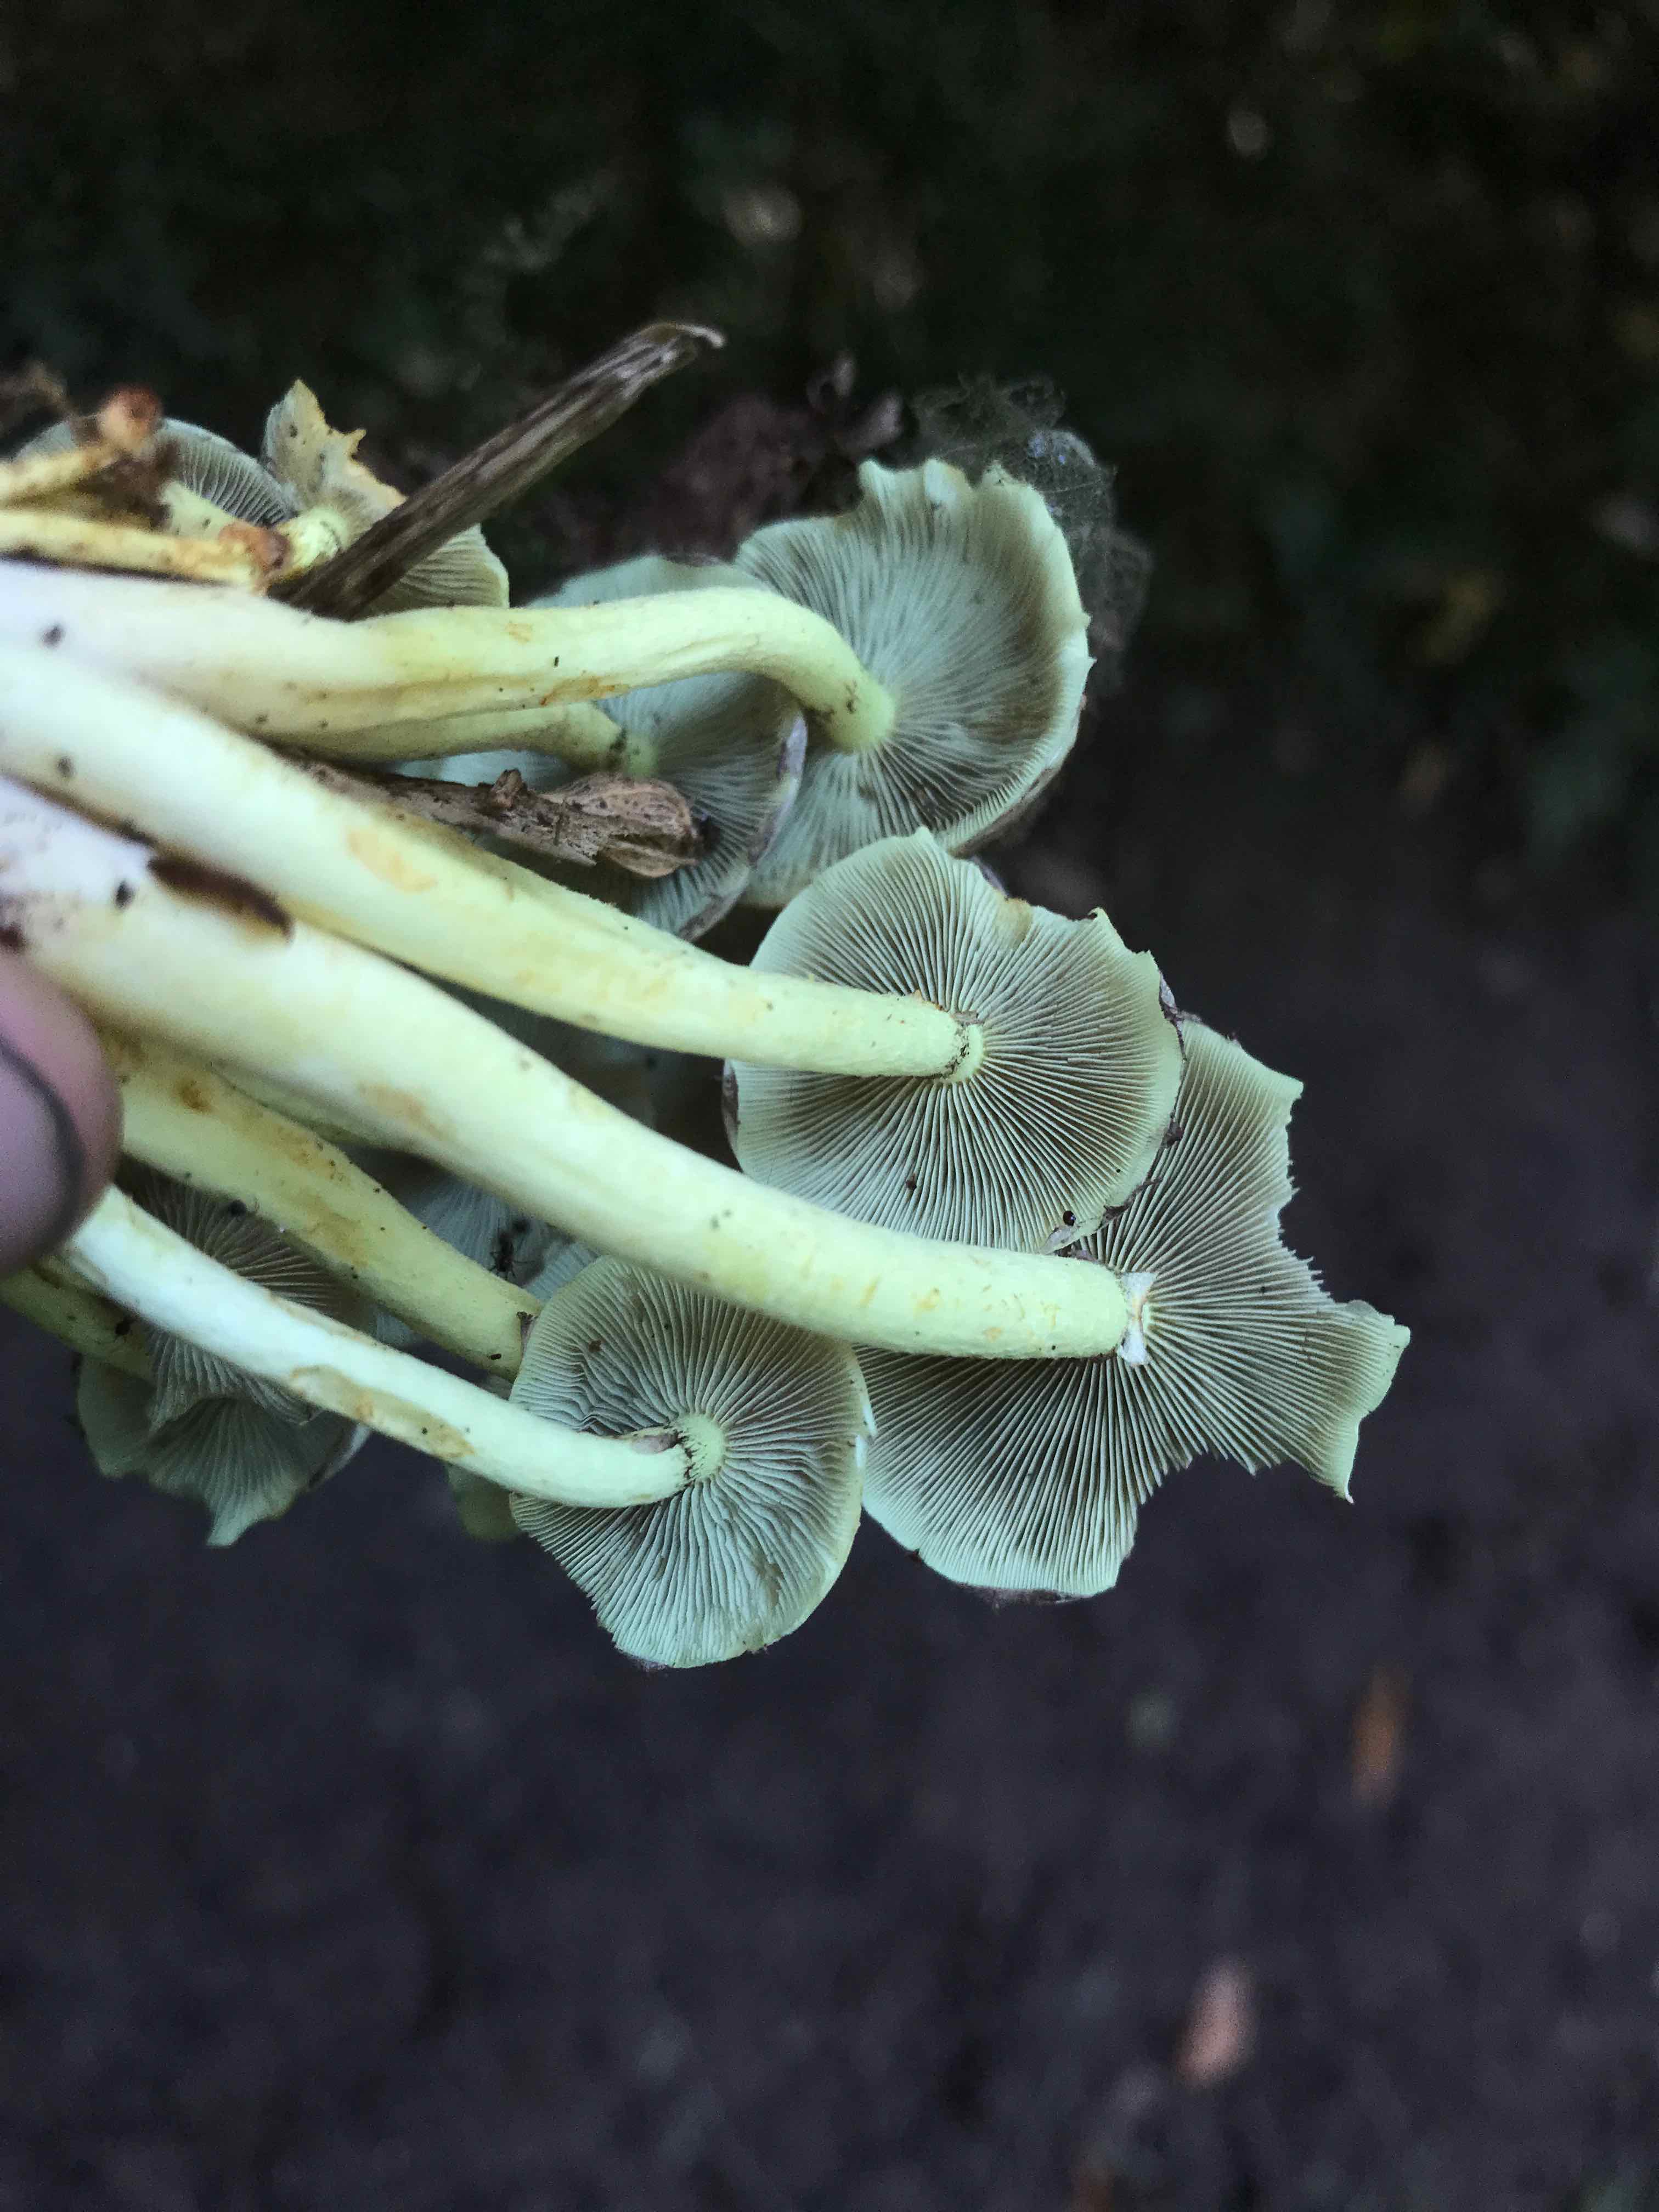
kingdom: Fungi
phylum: Basidiomycota
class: Agaricomycetes
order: Agaricales
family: Strophariaceae
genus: Hypholoma
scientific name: Hypholoma fasciculare
